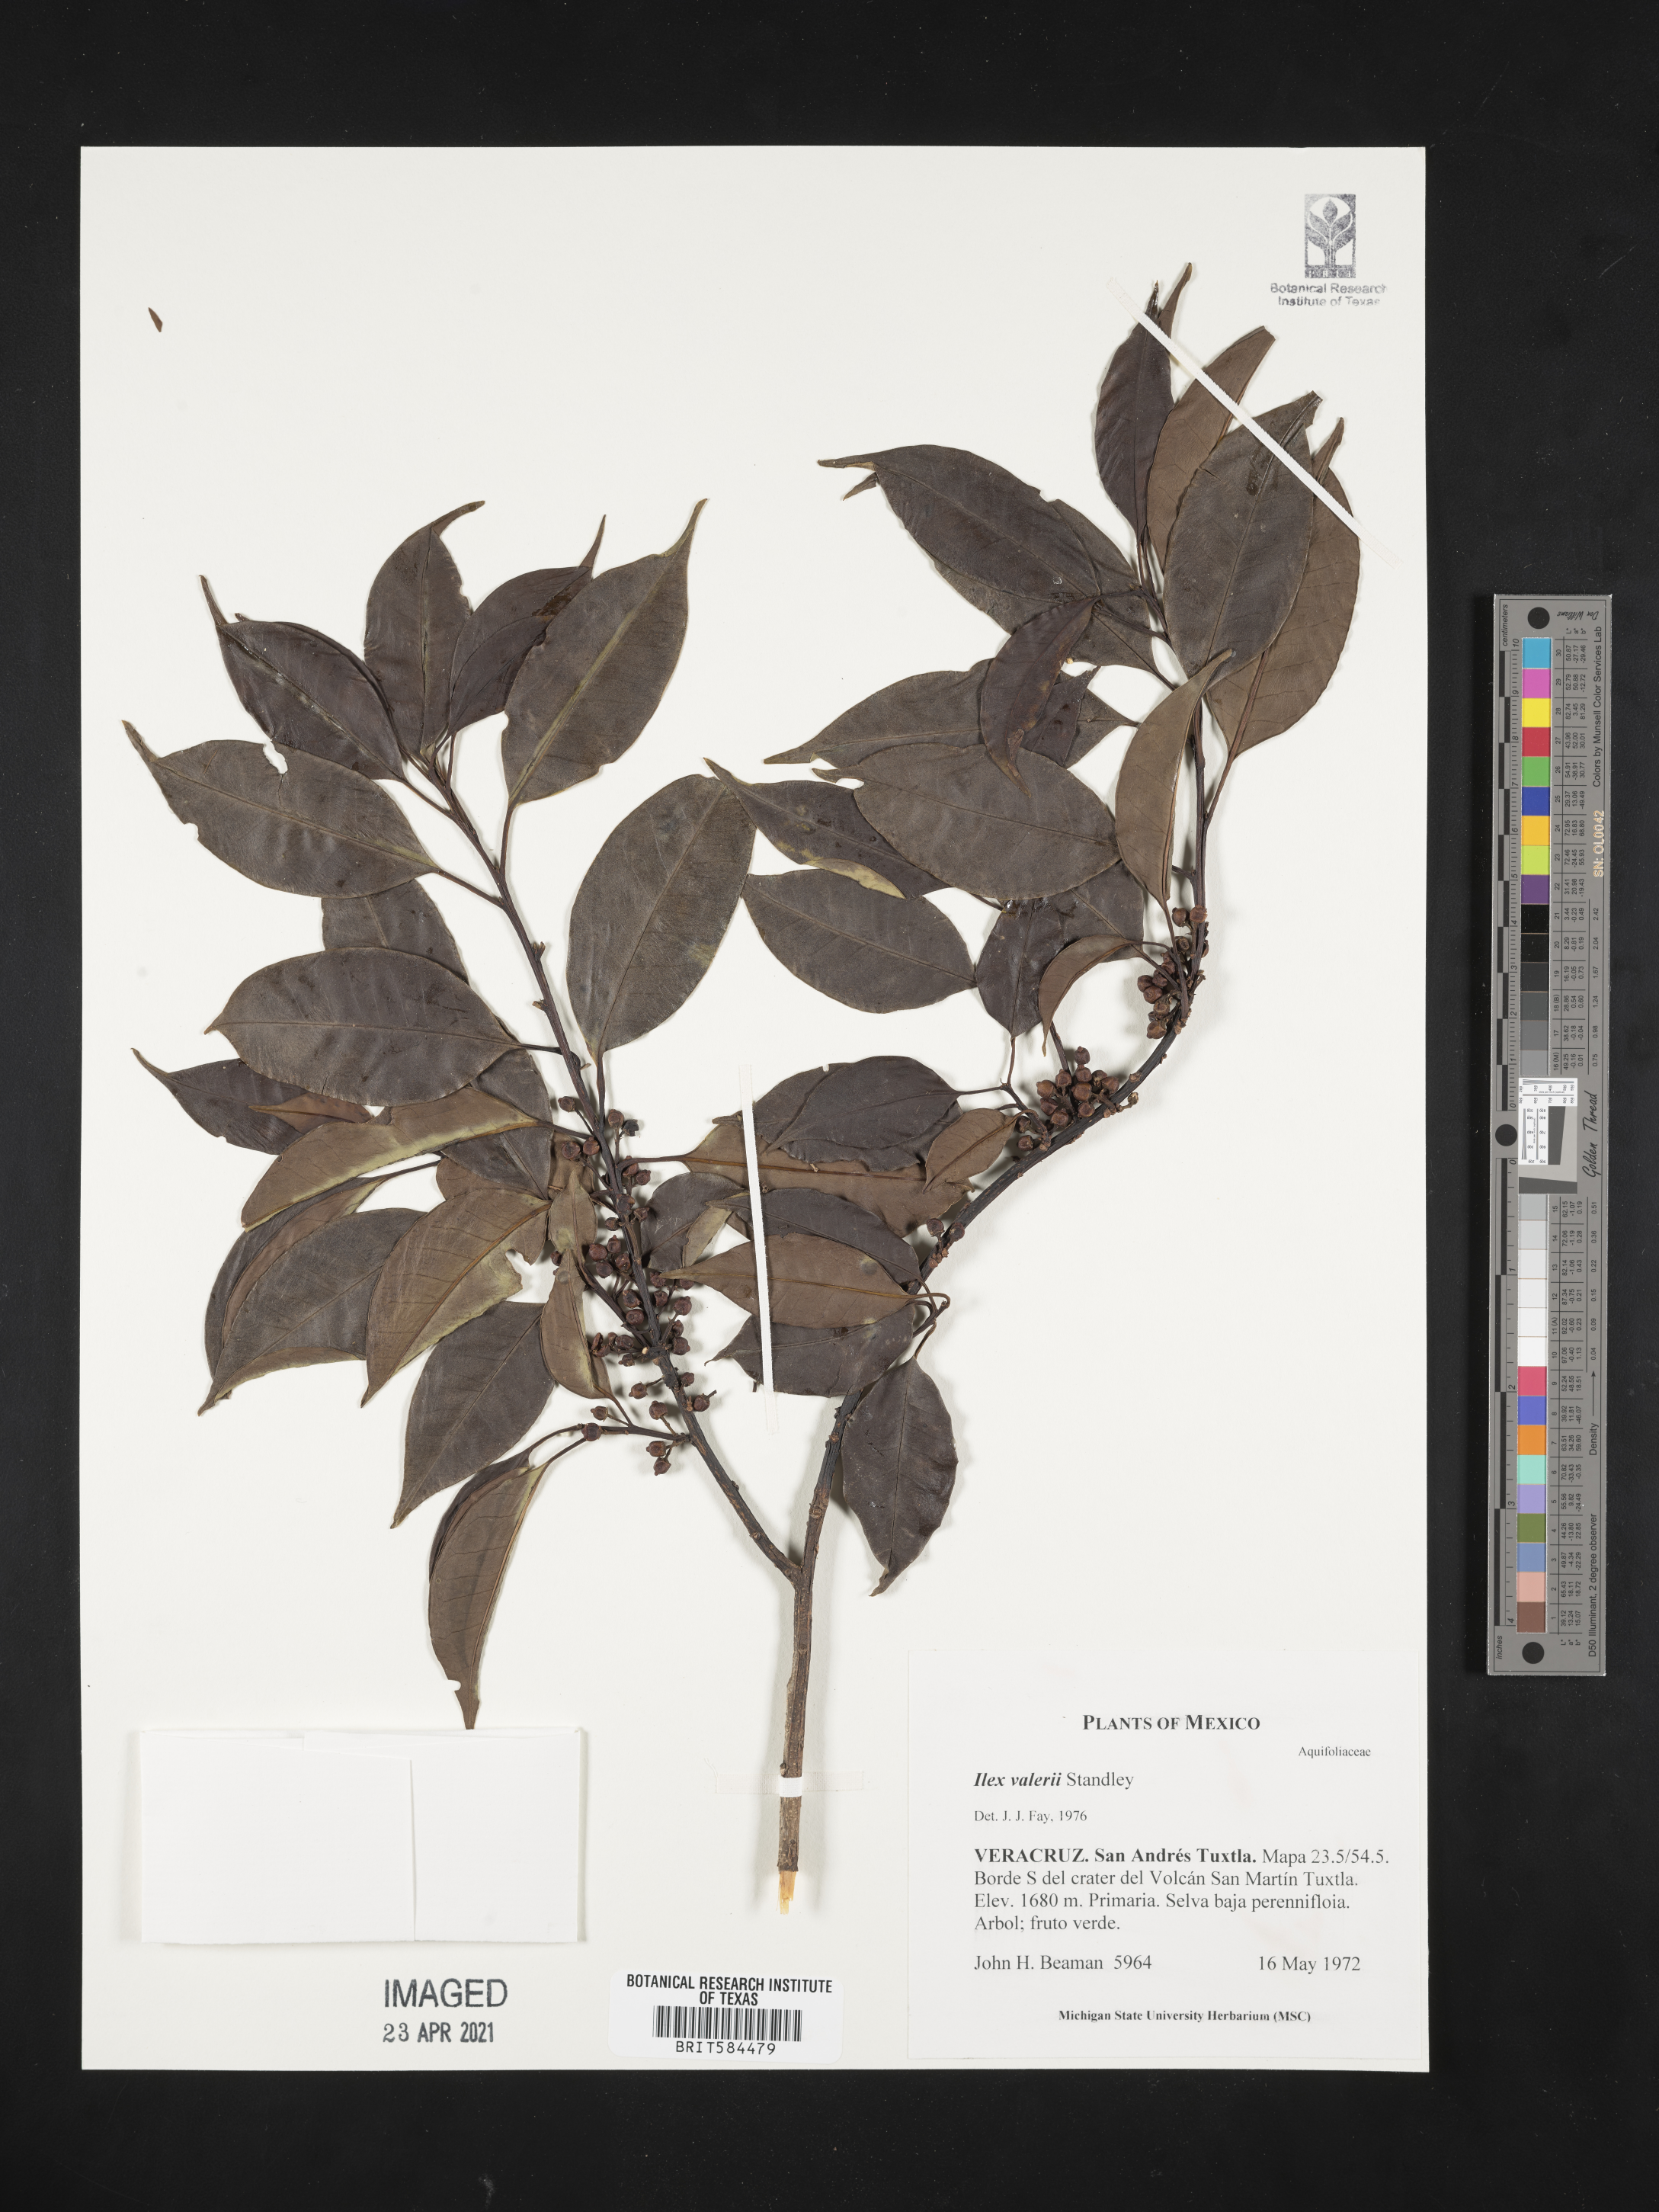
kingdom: Plantae
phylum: Tracheophyta
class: Magnoliopsida
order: Aquifoliales
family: Aquifoliaceae
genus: Ilex
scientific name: Ilex costaricensis
